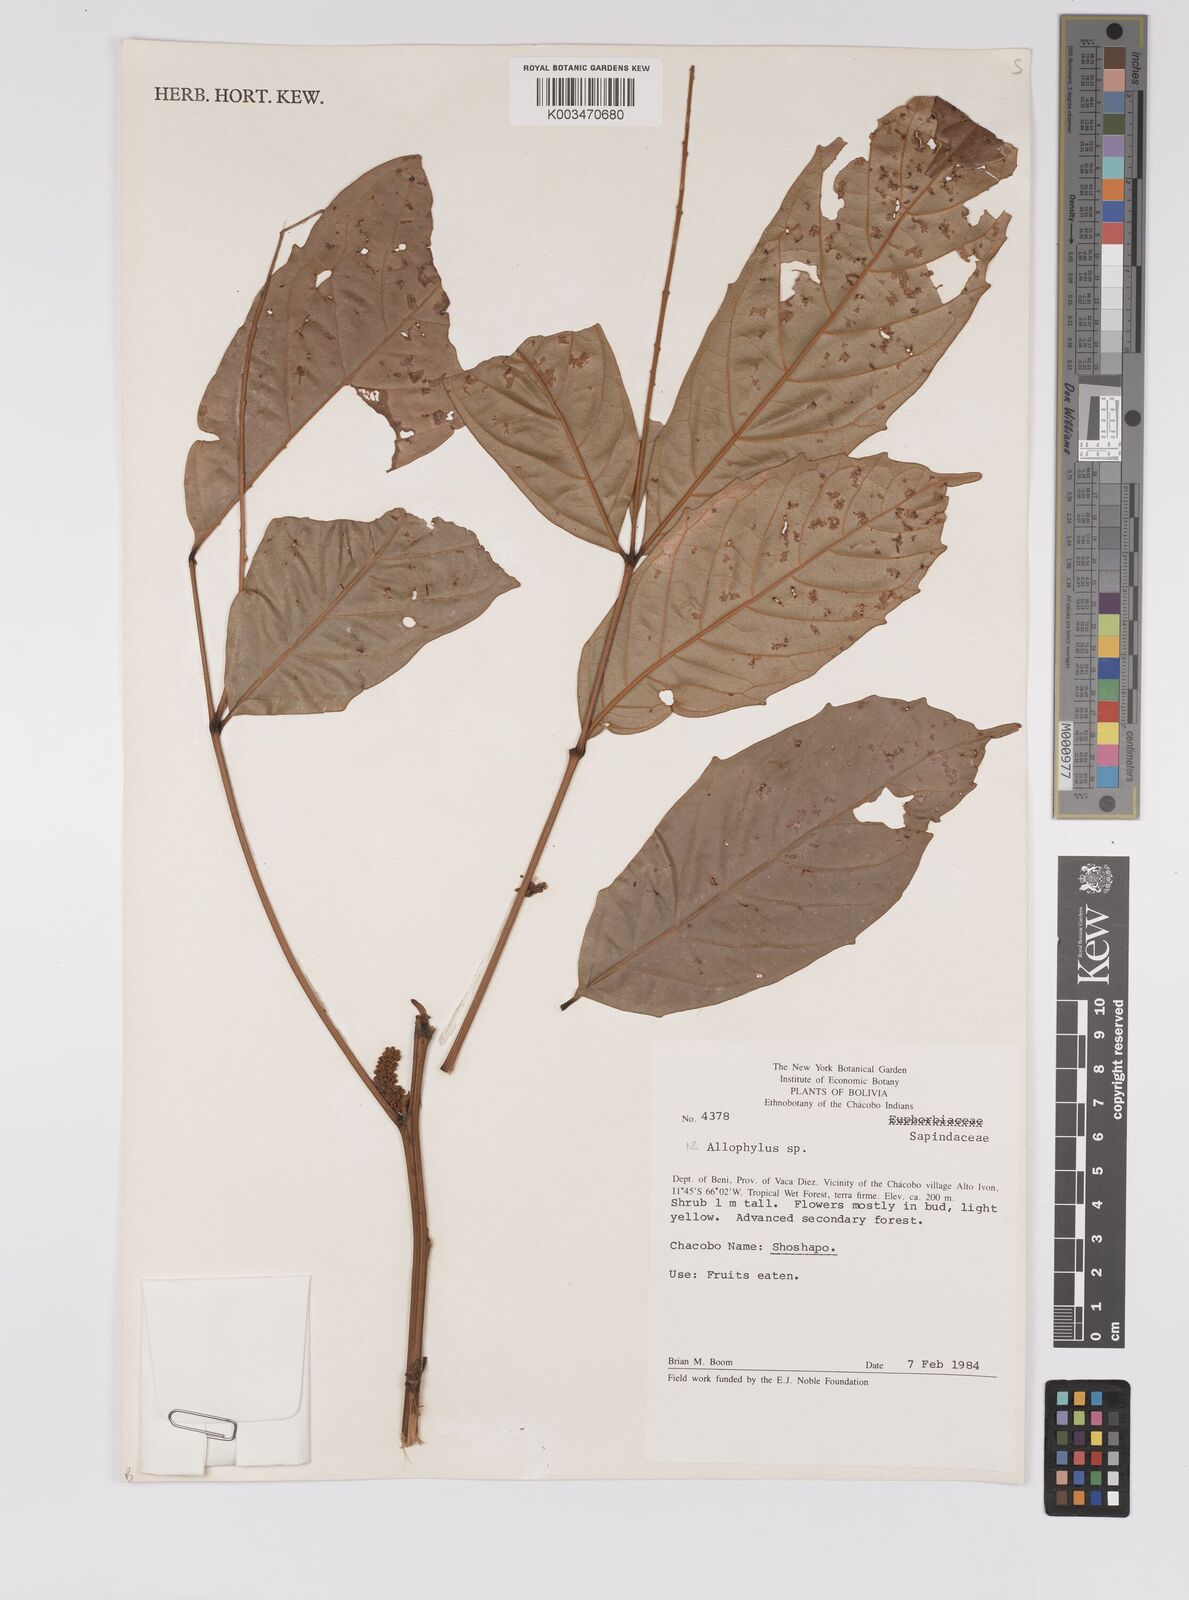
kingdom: Plantae
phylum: Tracheophyta
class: Magnoliopsida
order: Sapindales
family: Sapindaceae
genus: Allophylus
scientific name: Allophylus
